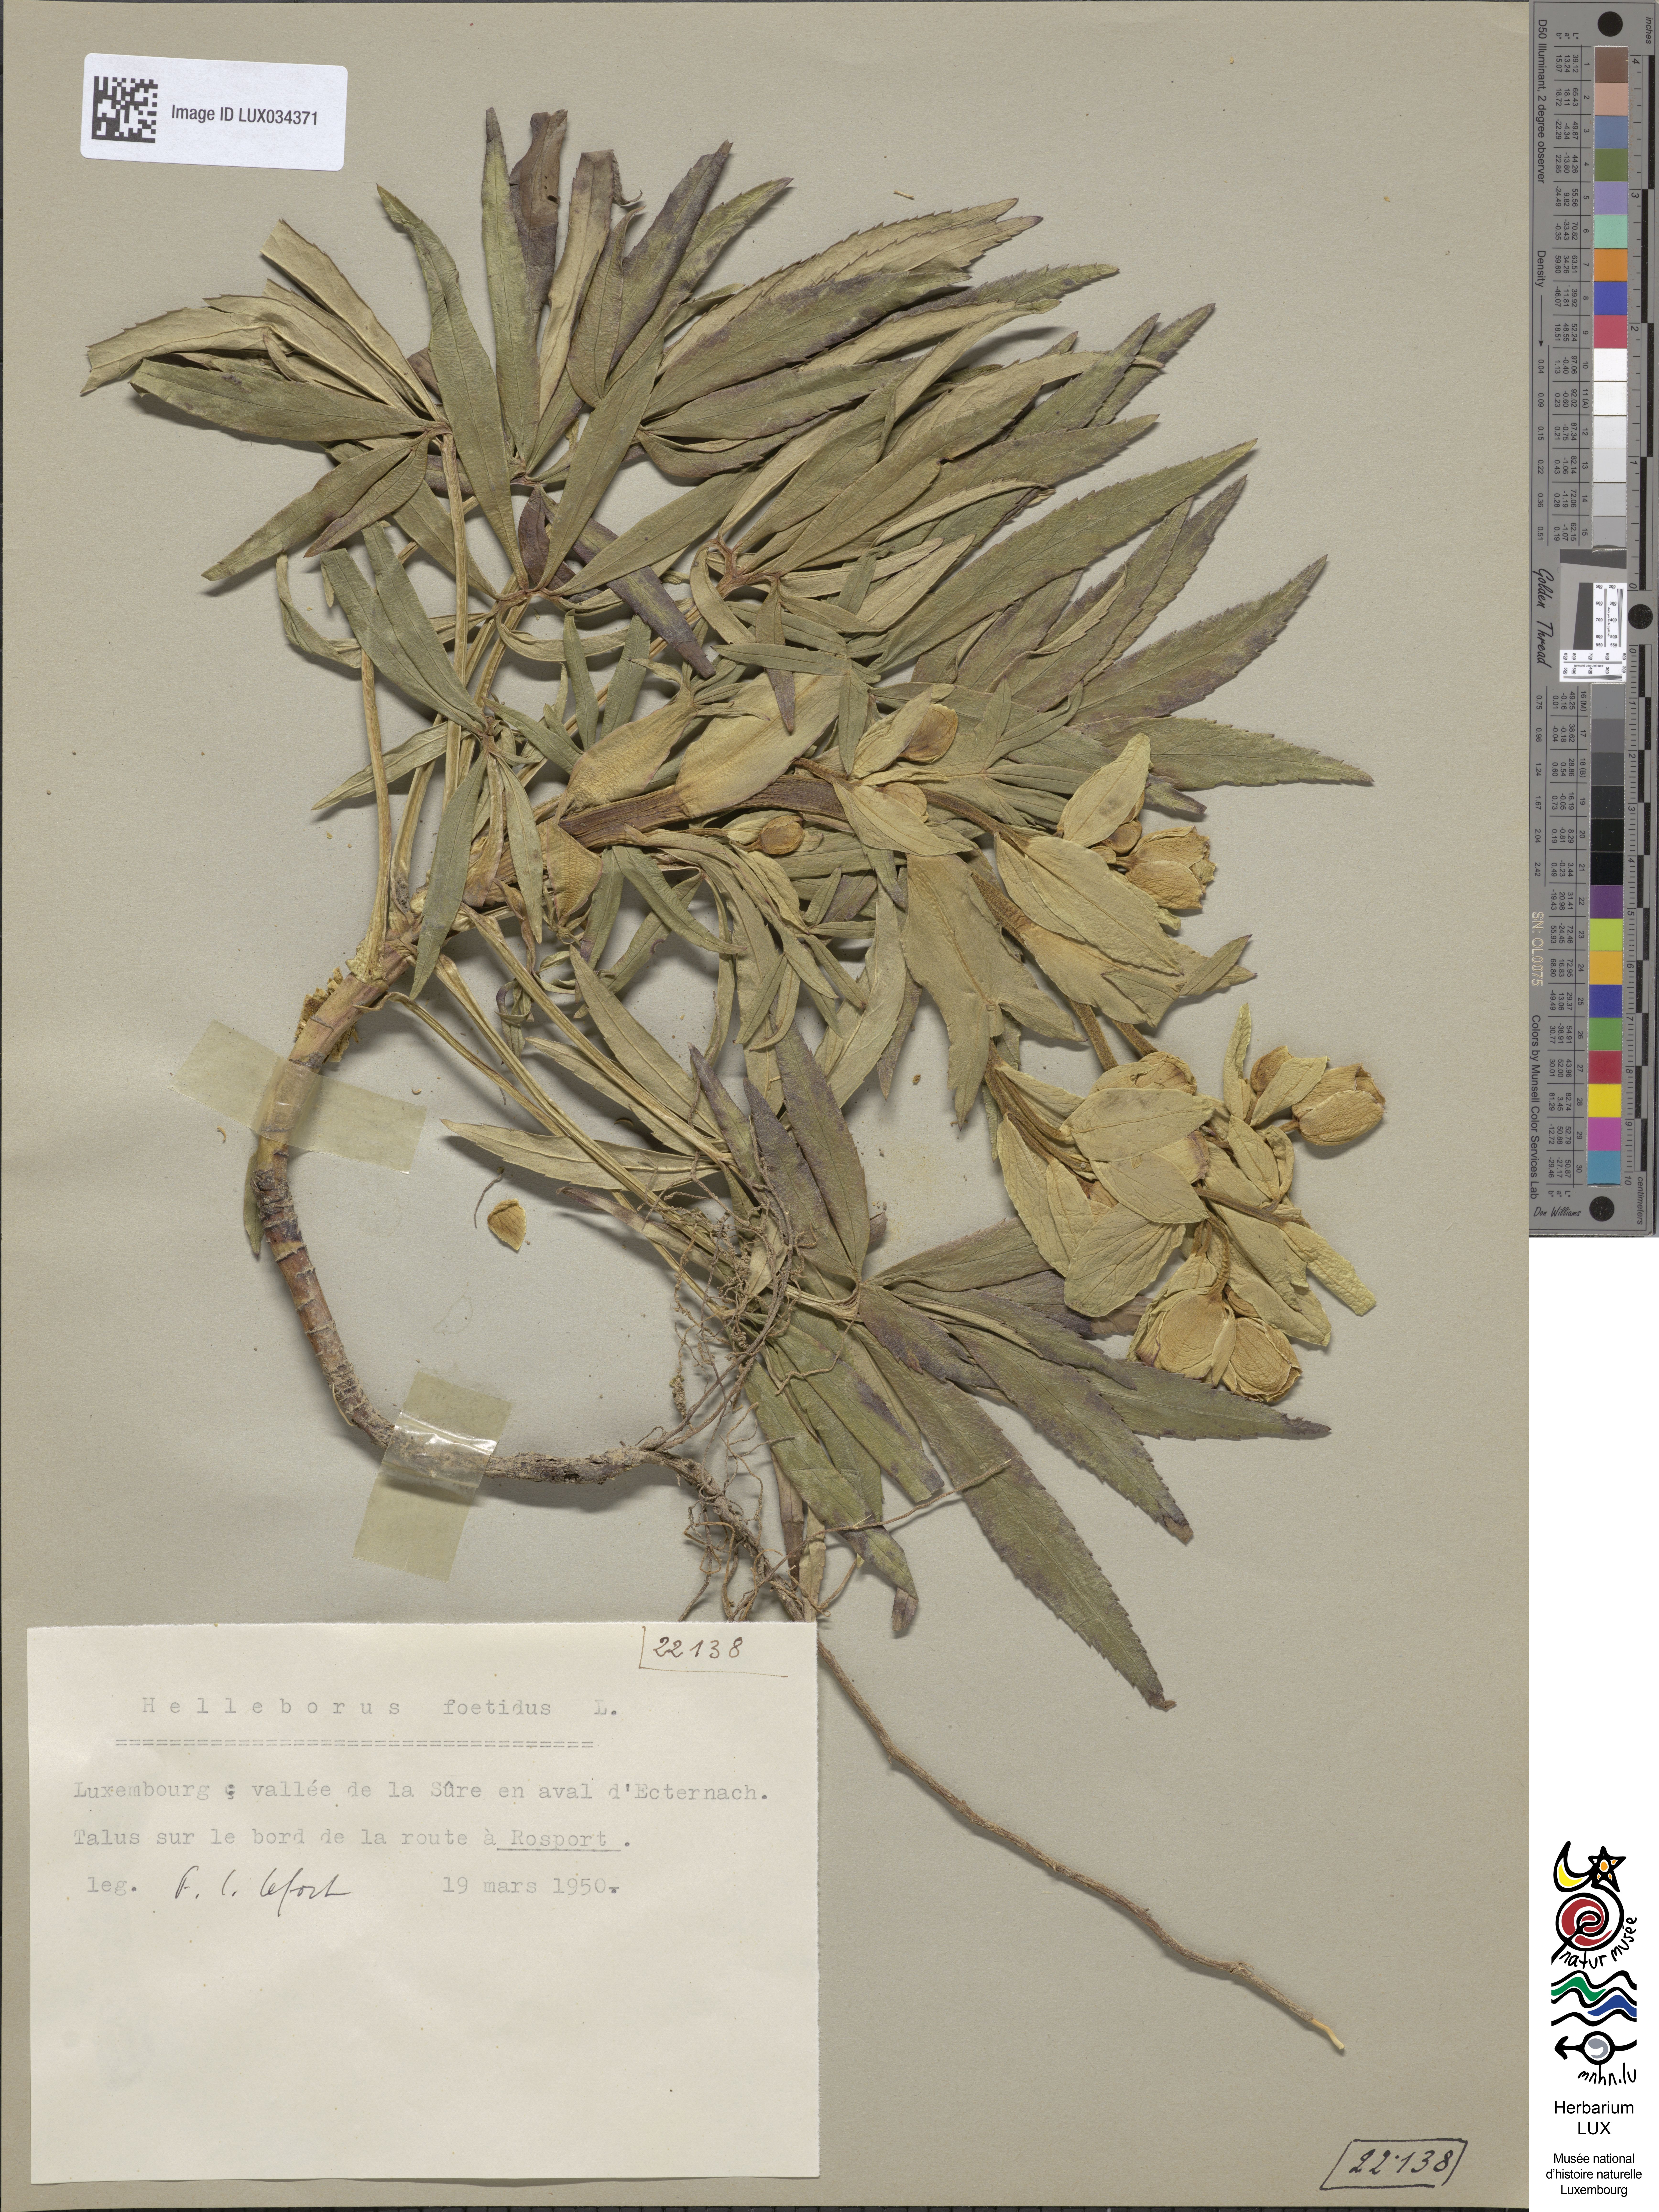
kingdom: Plantae
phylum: Tracheophyta
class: Magnoliopsida
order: Ranunculales
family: Ranunculaceae
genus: Helleborus
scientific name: Helleborus foetidus
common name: Stinking hellebore
